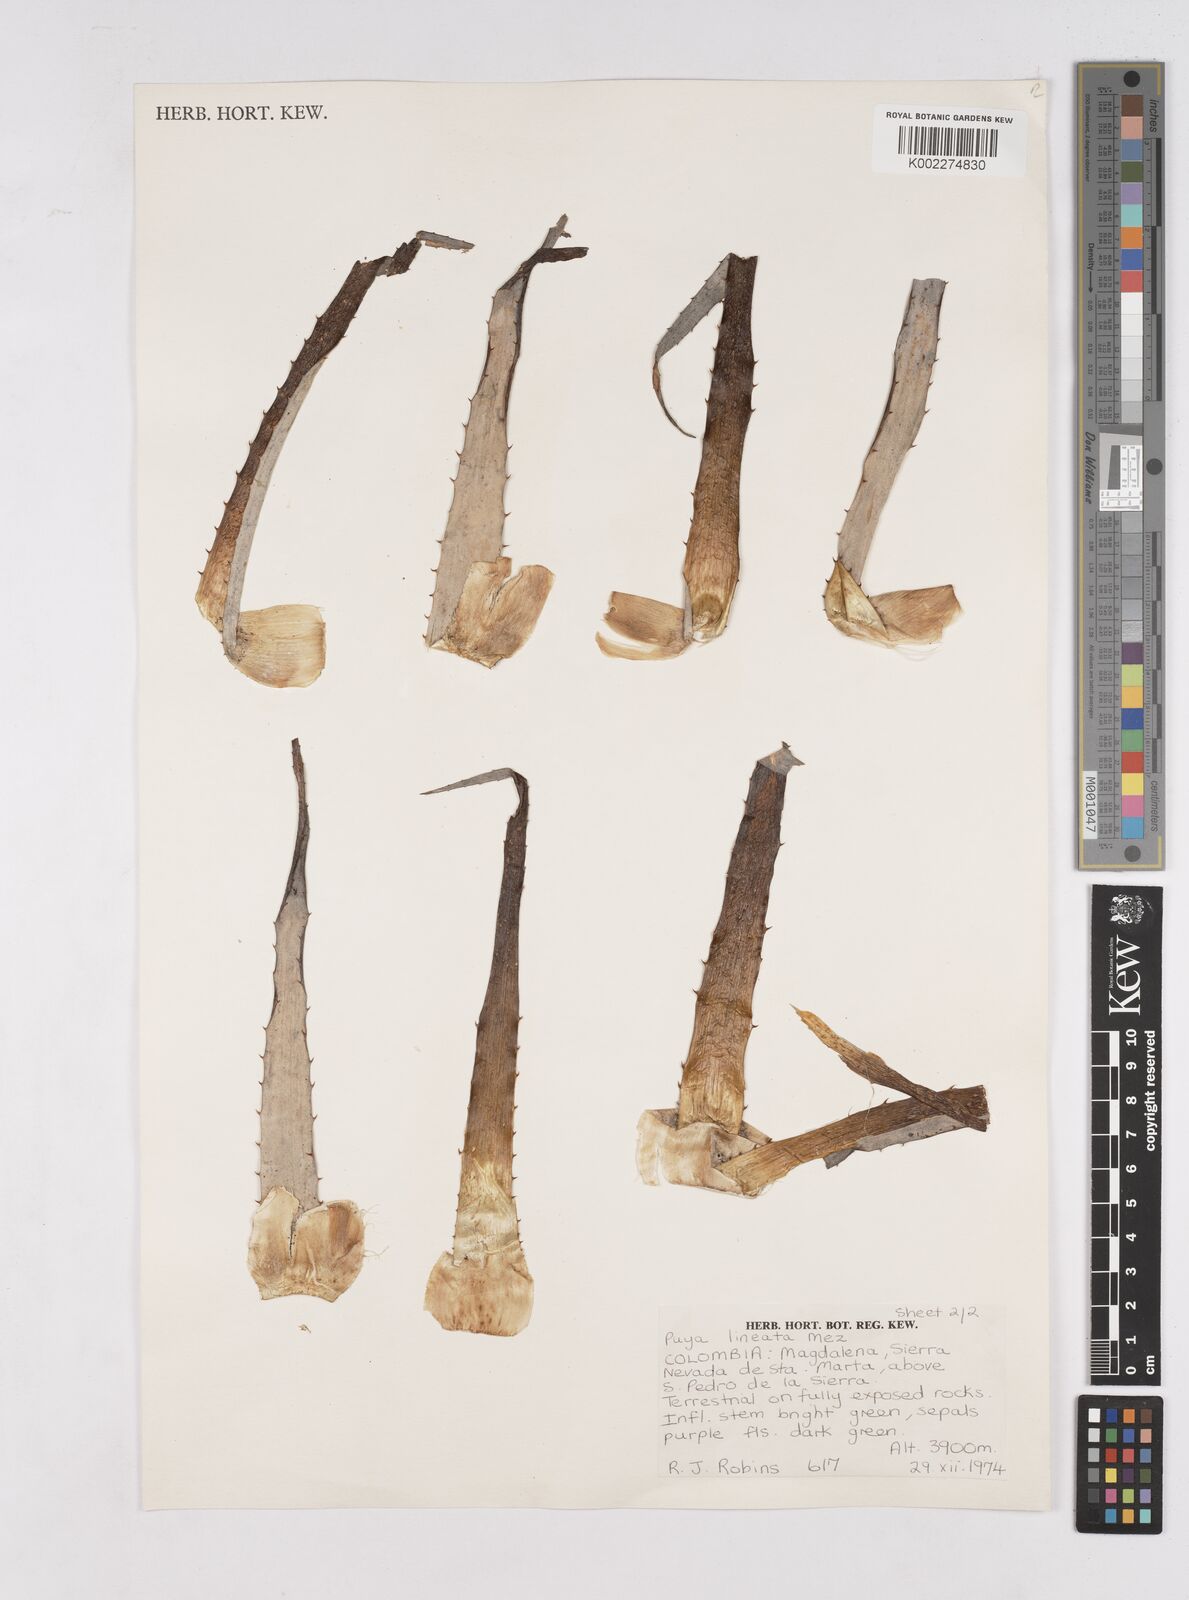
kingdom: Plantae
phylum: Tracheophyta
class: Liliopsida
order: Poales
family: Bromeliaceae
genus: Puya
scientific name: Puya lineata
